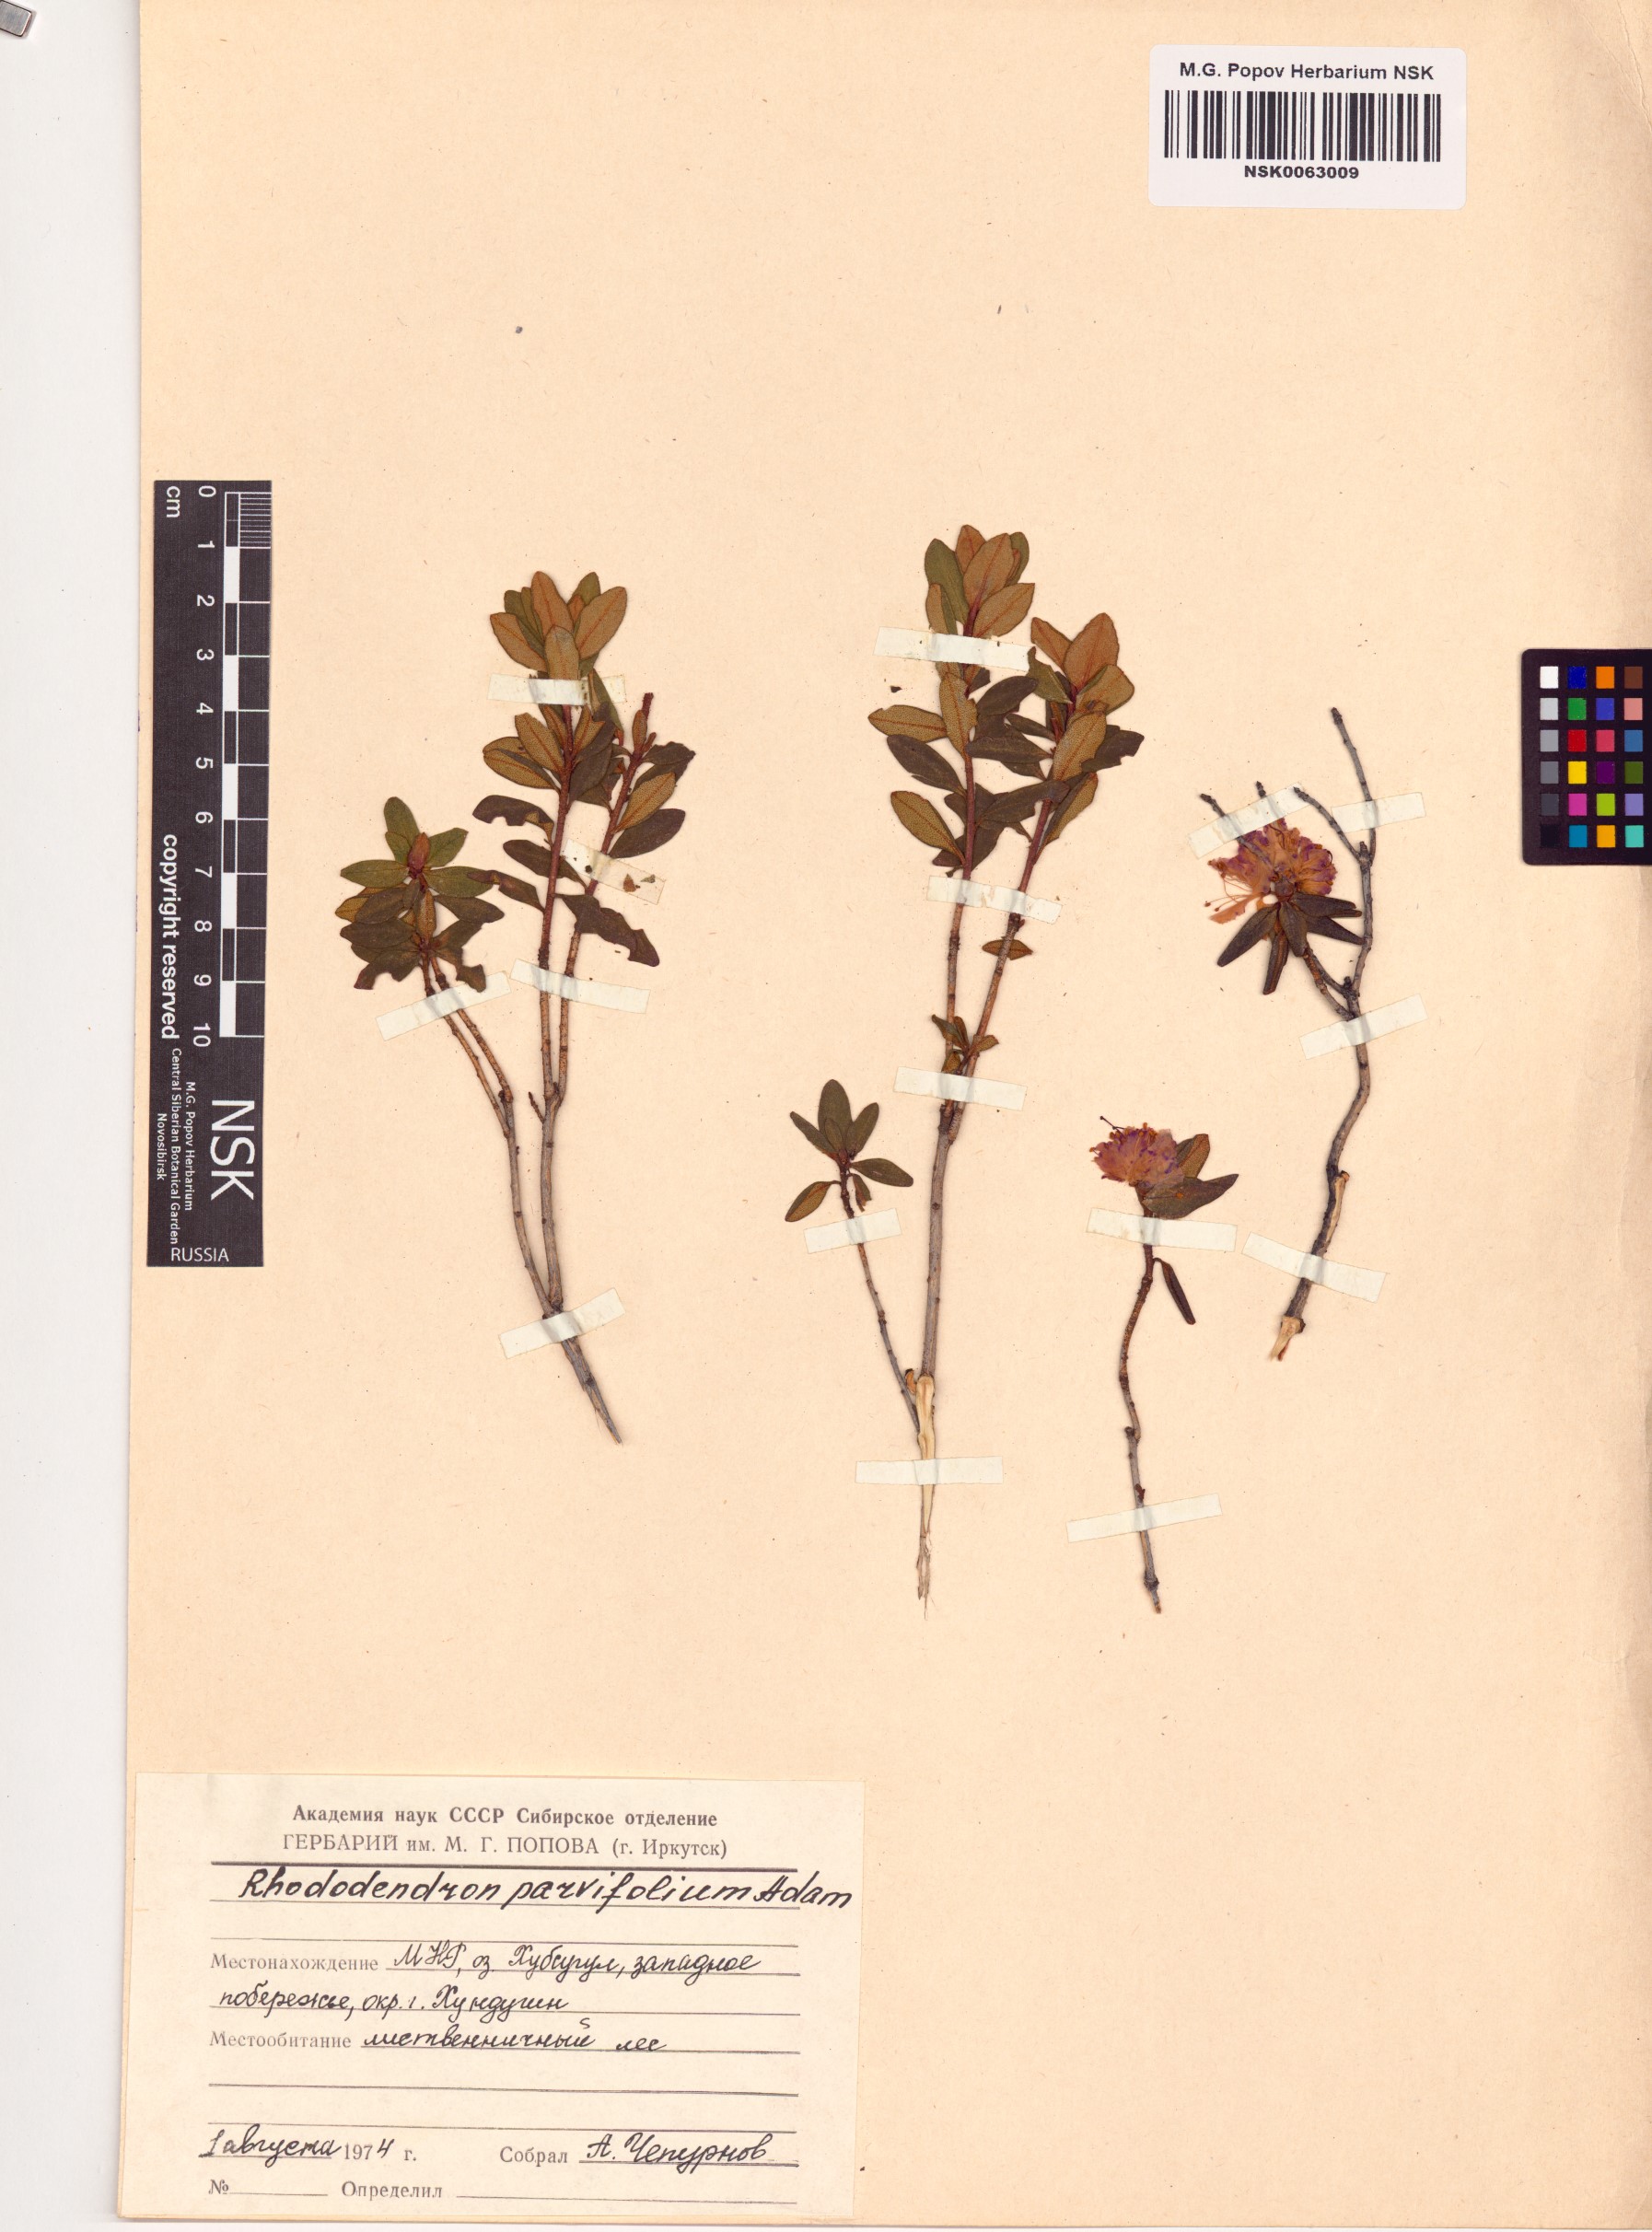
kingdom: Plantae
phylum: Tracheophyta
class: Magnoliopsida
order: Ericales
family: Ericaceae
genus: Rhododendron
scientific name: Rhododendron parvifolium
